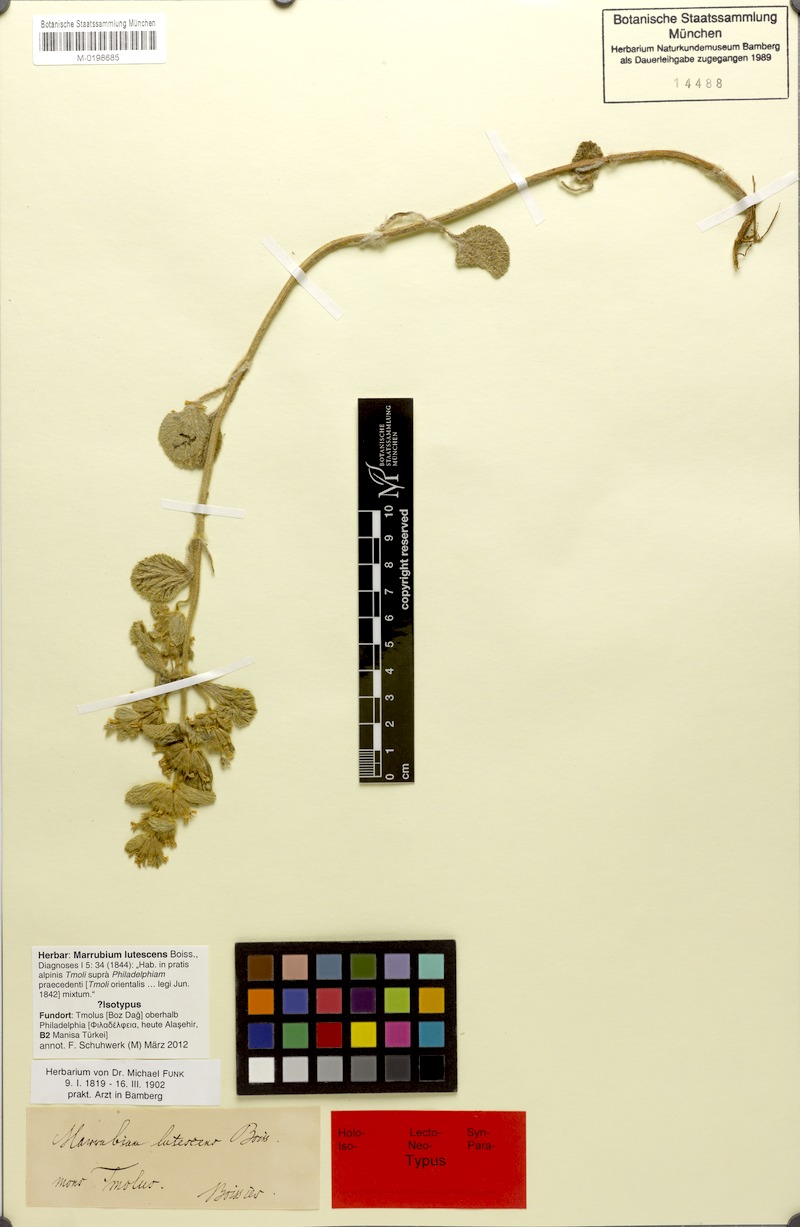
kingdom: Plantae
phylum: Tracheophyta
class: Magnoliopsida
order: Lamiales
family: Lamiaceae
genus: Marrubium
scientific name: Marrubium lutescens
